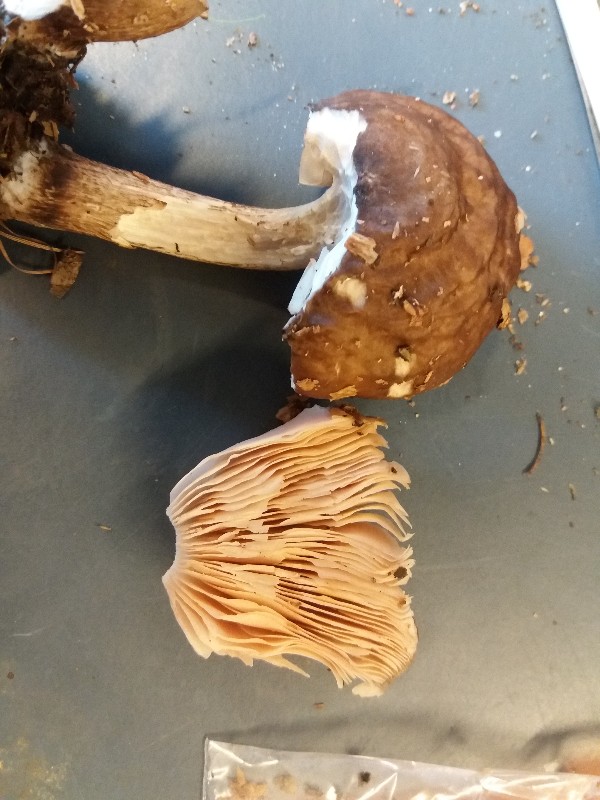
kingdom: Fungi
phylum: Basidiomycota
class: Agaricomycetes
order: Agaricales
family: Pluteaceae
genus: Pluteus
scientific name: Pluteus cervinus
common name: sodfarvet skærmhat
